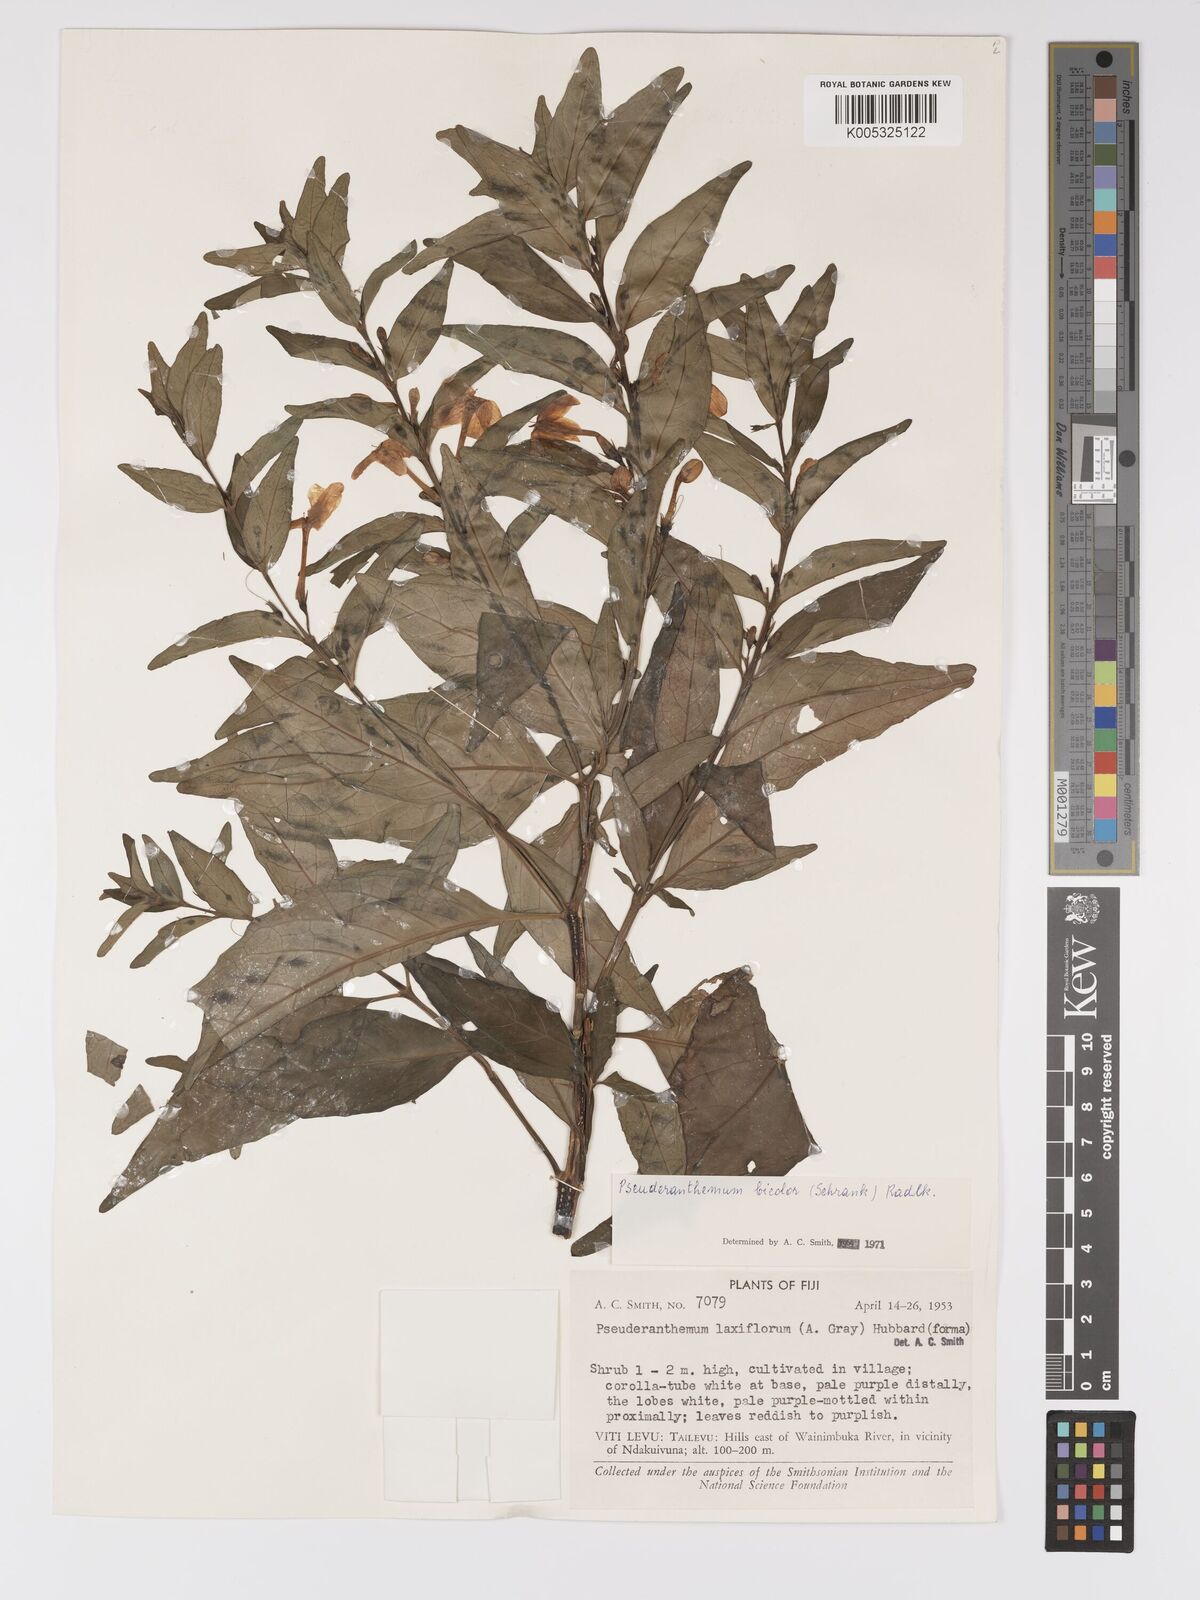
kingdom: Plantae
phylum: Tracheophyta
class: Magnoliopsida
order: Lamiales
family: Acanthaceae
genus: Pseuderanthemum
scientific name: Pseuderanthemum bicolor
